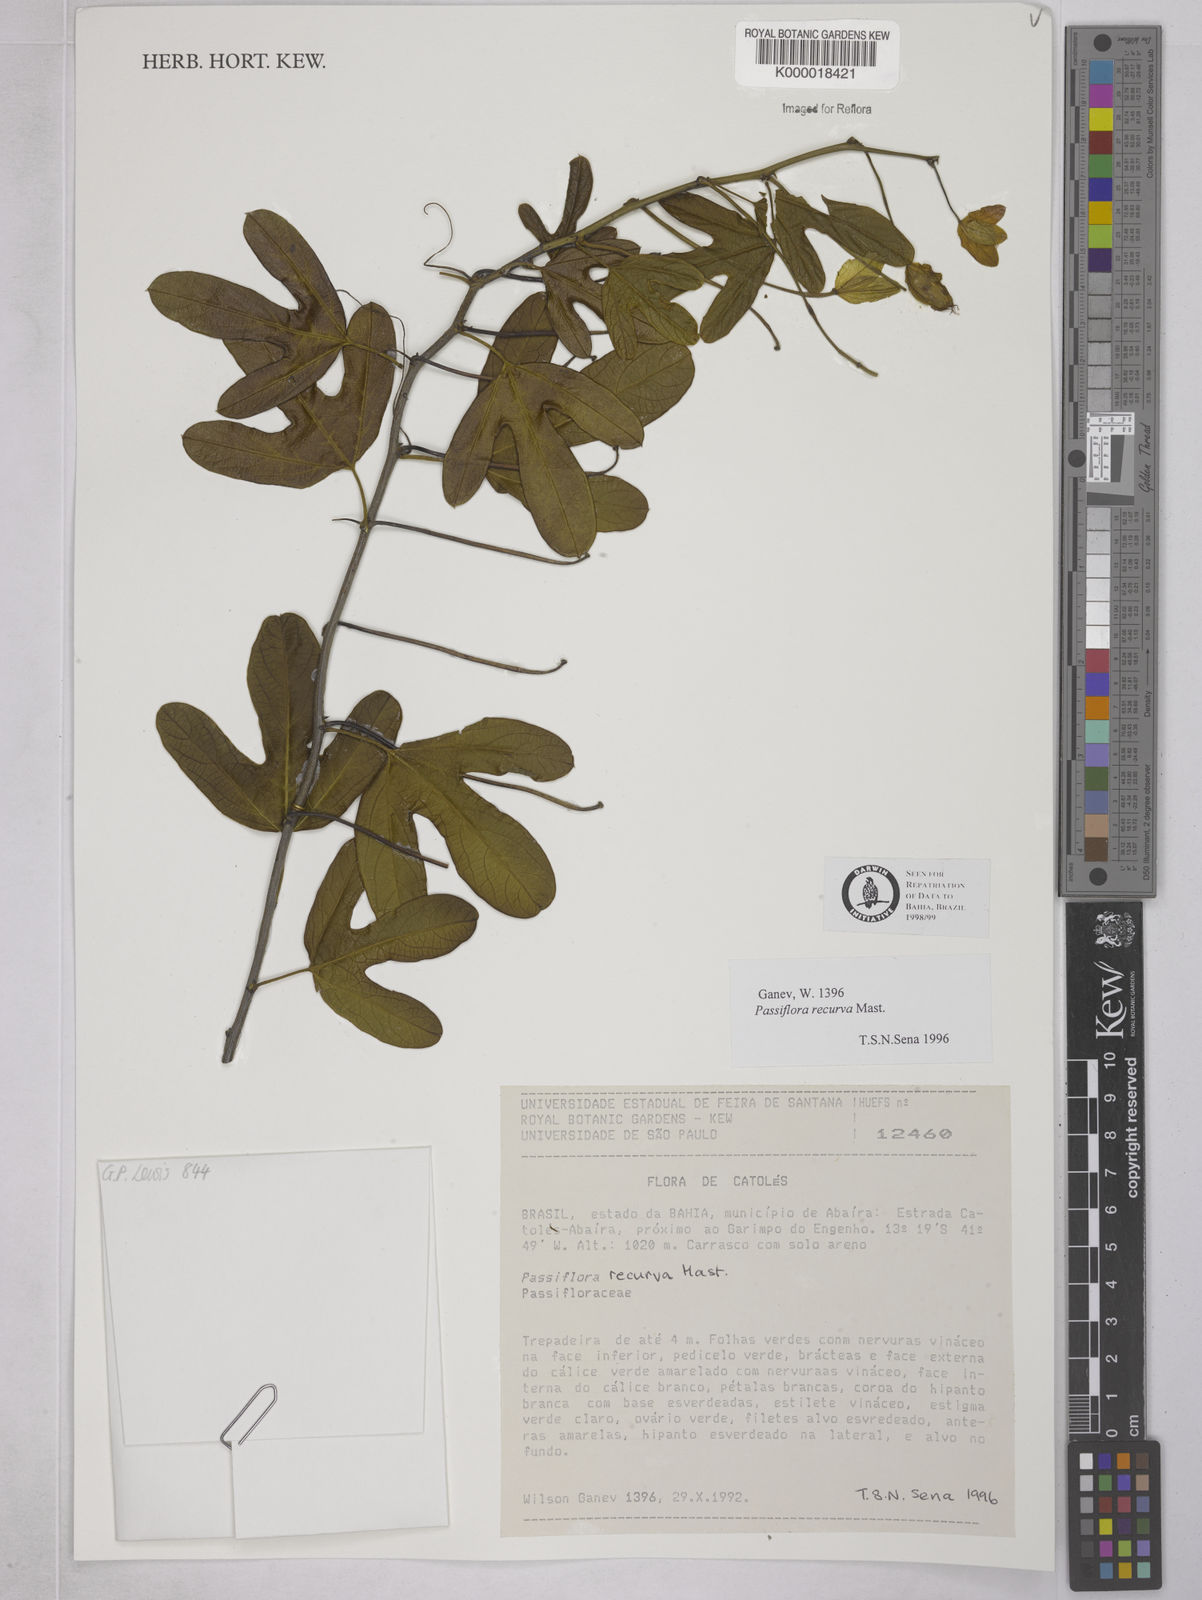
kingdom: Plantae
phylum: Tracheophyta
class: Magnoliopsida
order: Malpighiales
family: Passifloraceae
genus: Passiflora
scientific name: Passiflora recurva
